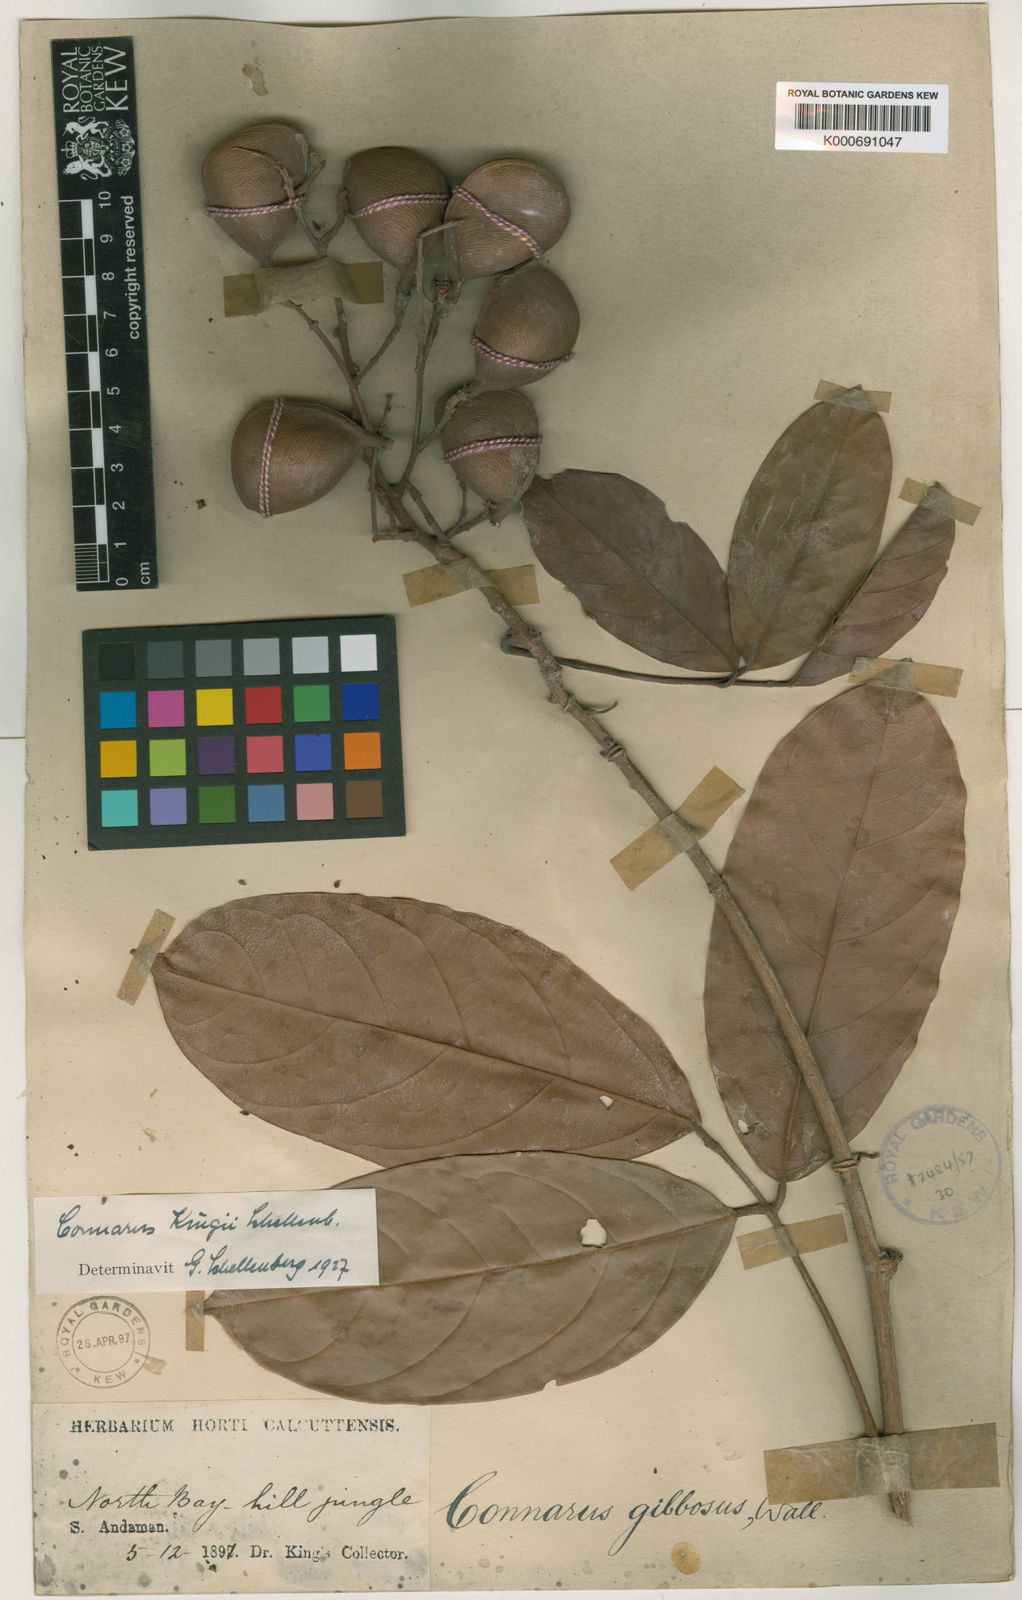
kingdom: Plantae
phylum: Tracheophyta
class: Magnoliopsida
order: Oxalidales
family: Connaraceae
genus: Connarus
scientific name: Connarus kingii
